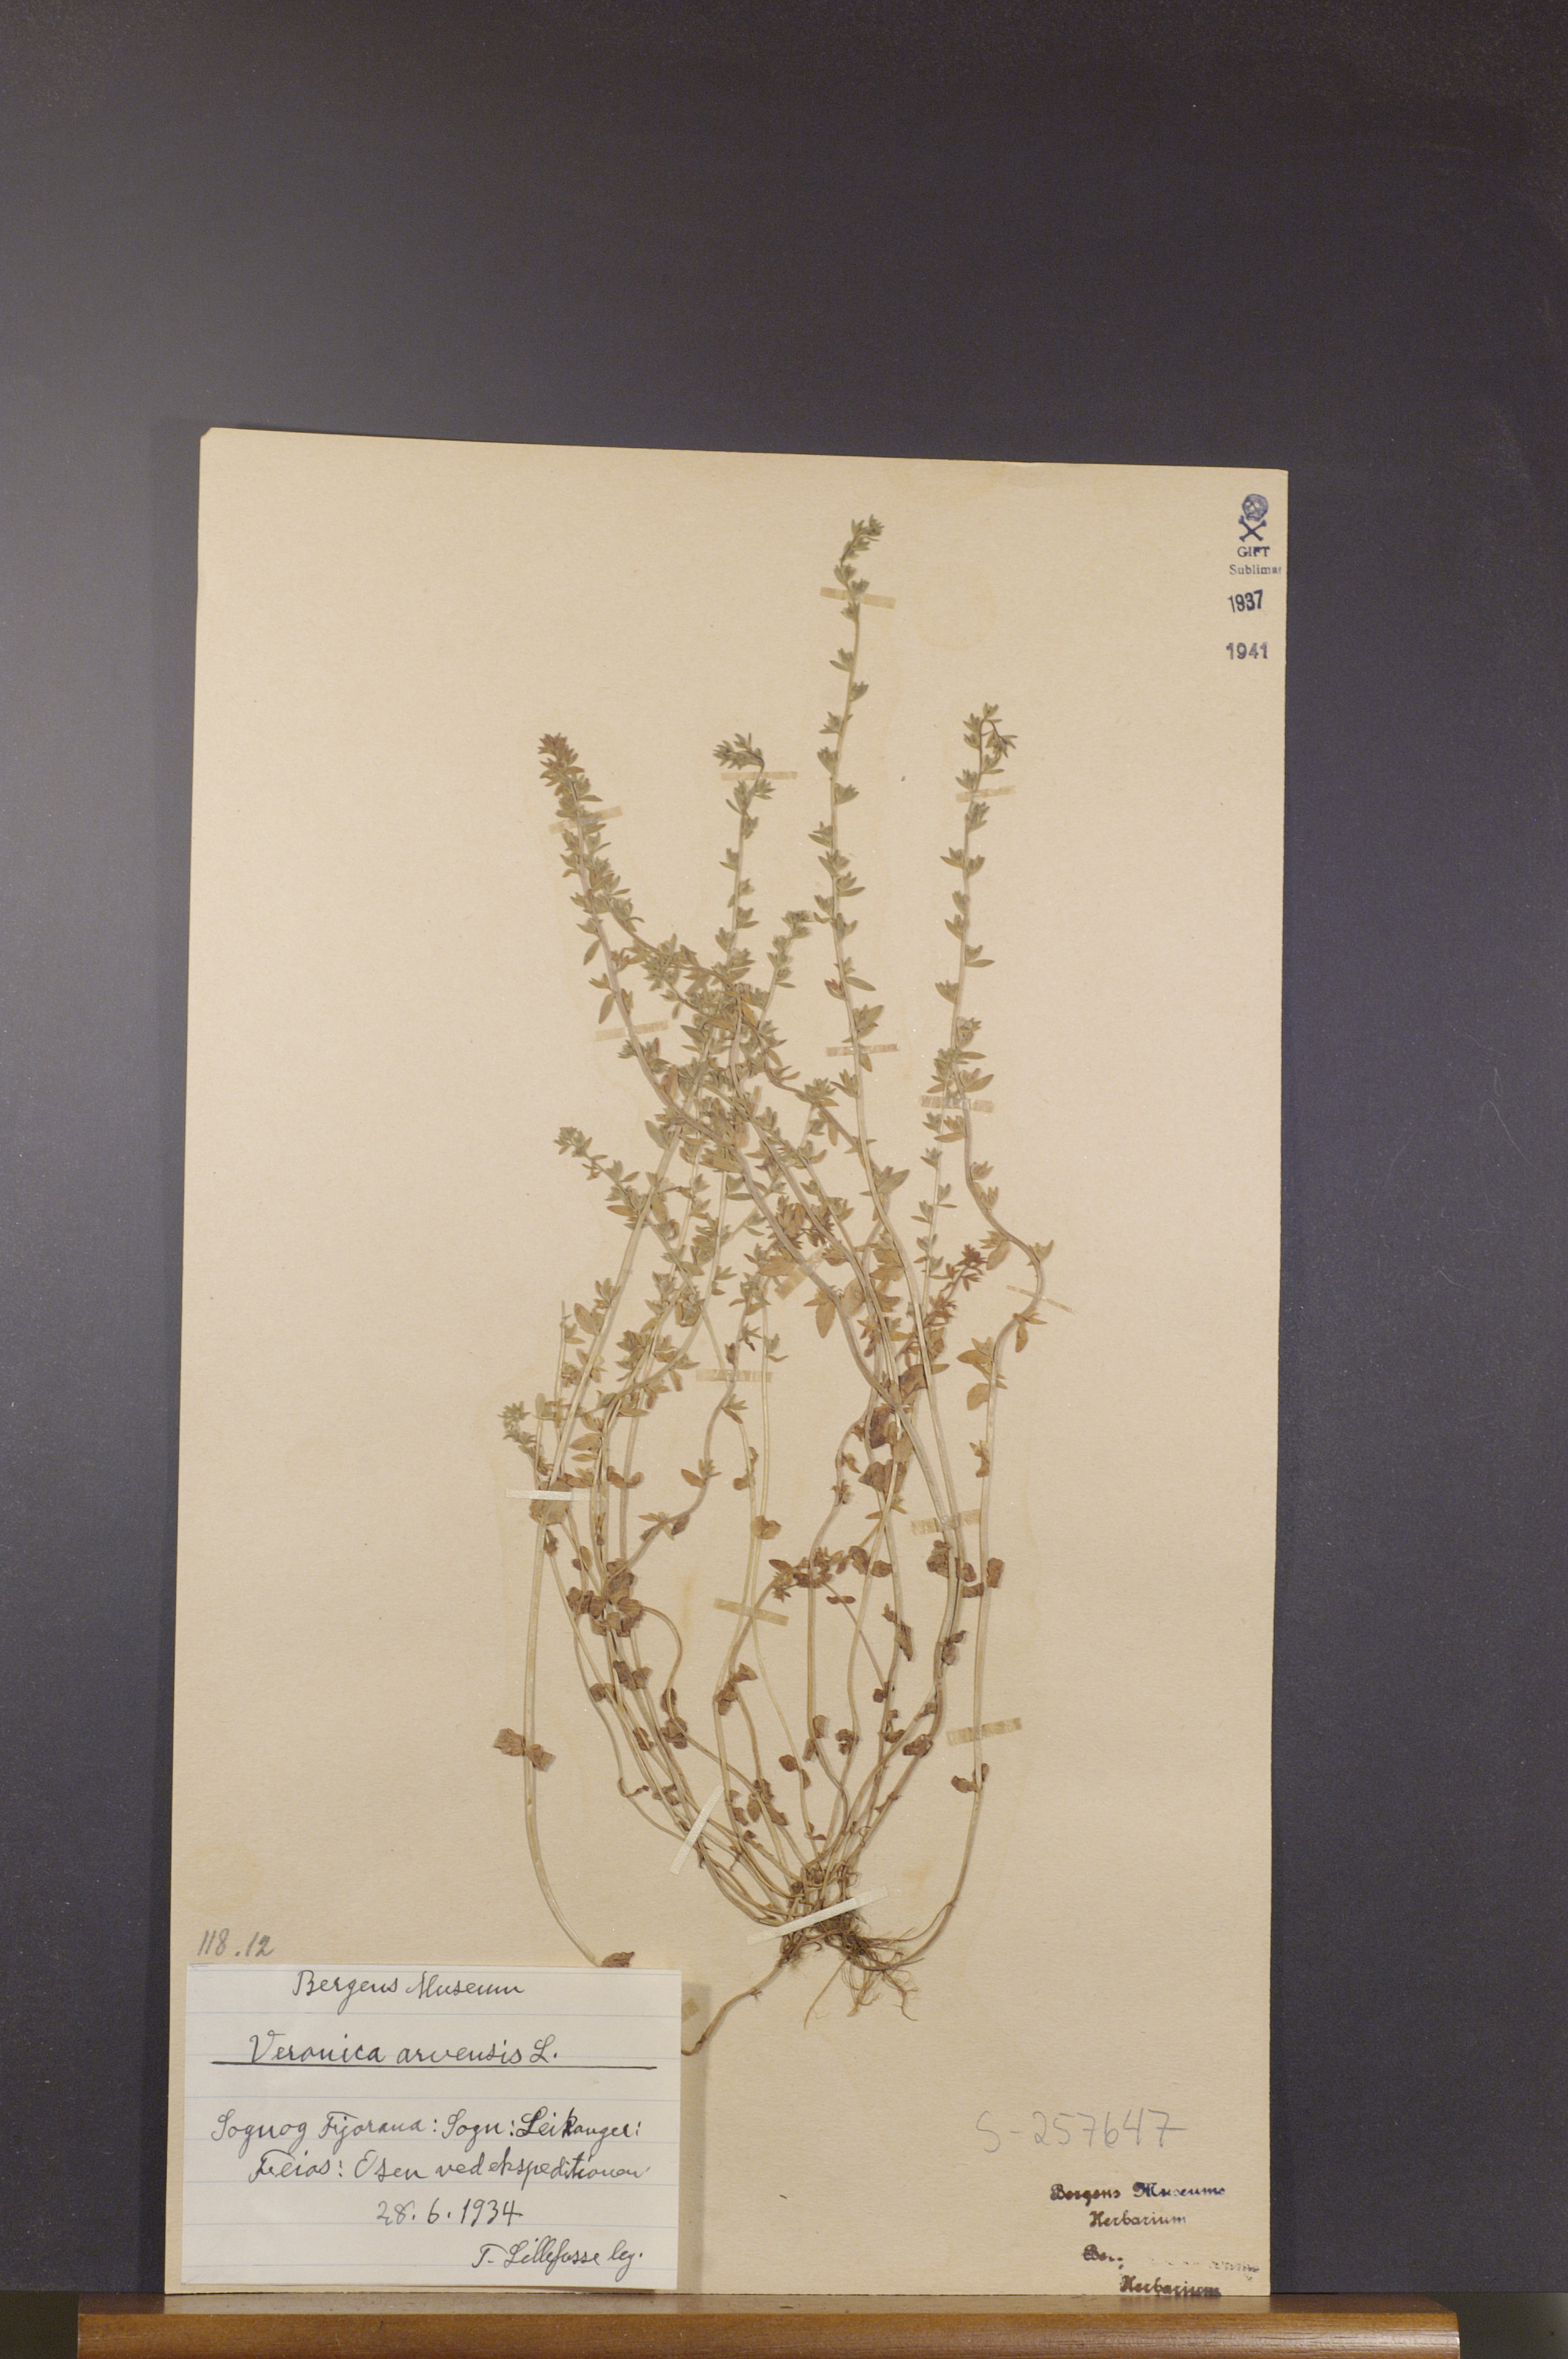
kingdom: Plantae
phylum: Tracheophyta
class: Magnoliopsida
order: Lamiales
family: Plantaginaceae
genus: Veronica
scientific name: Veronica arvensis
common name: Corn speedwell
